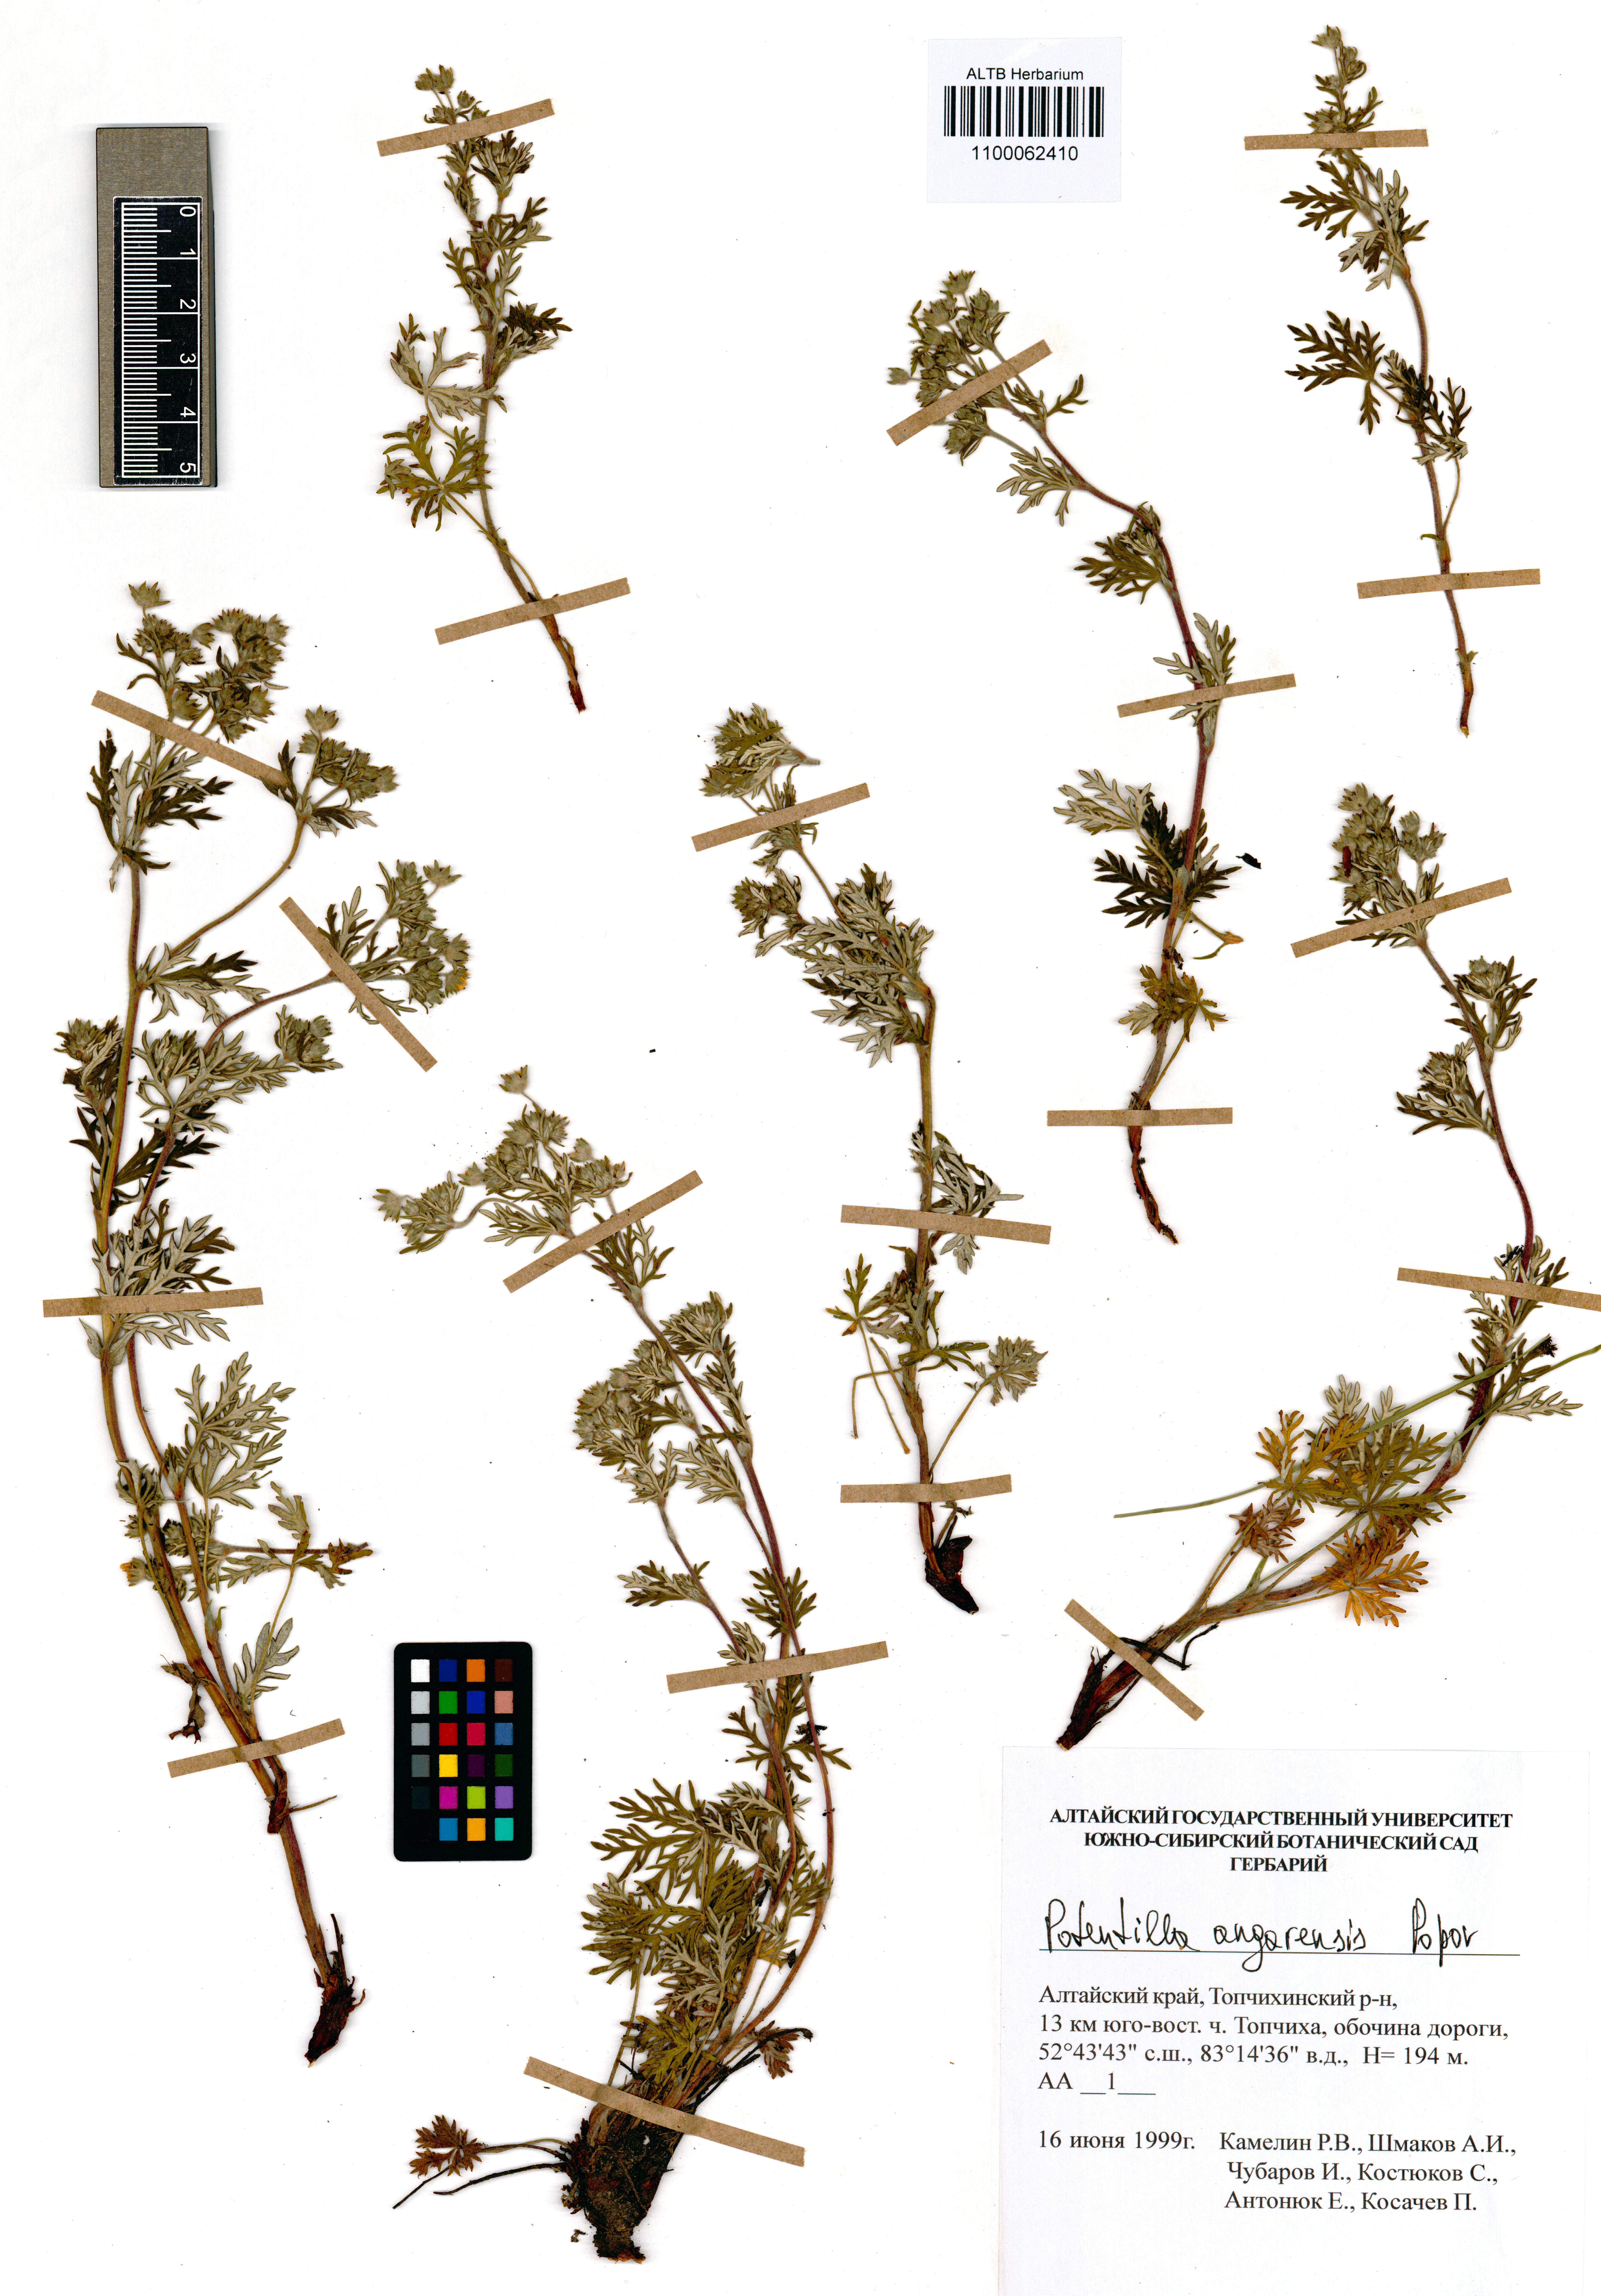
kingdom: Plantae
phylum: Tracheophyta
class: Magnoliopsida
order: Rosales
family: Rosaceae
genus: Potentilla
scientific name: Potentilla angarensis
